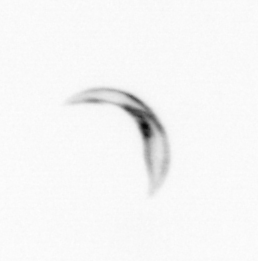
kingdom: Chromista
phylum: Ochrophyta
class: Bacillariophyceae
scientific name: Bacillariophyceae
